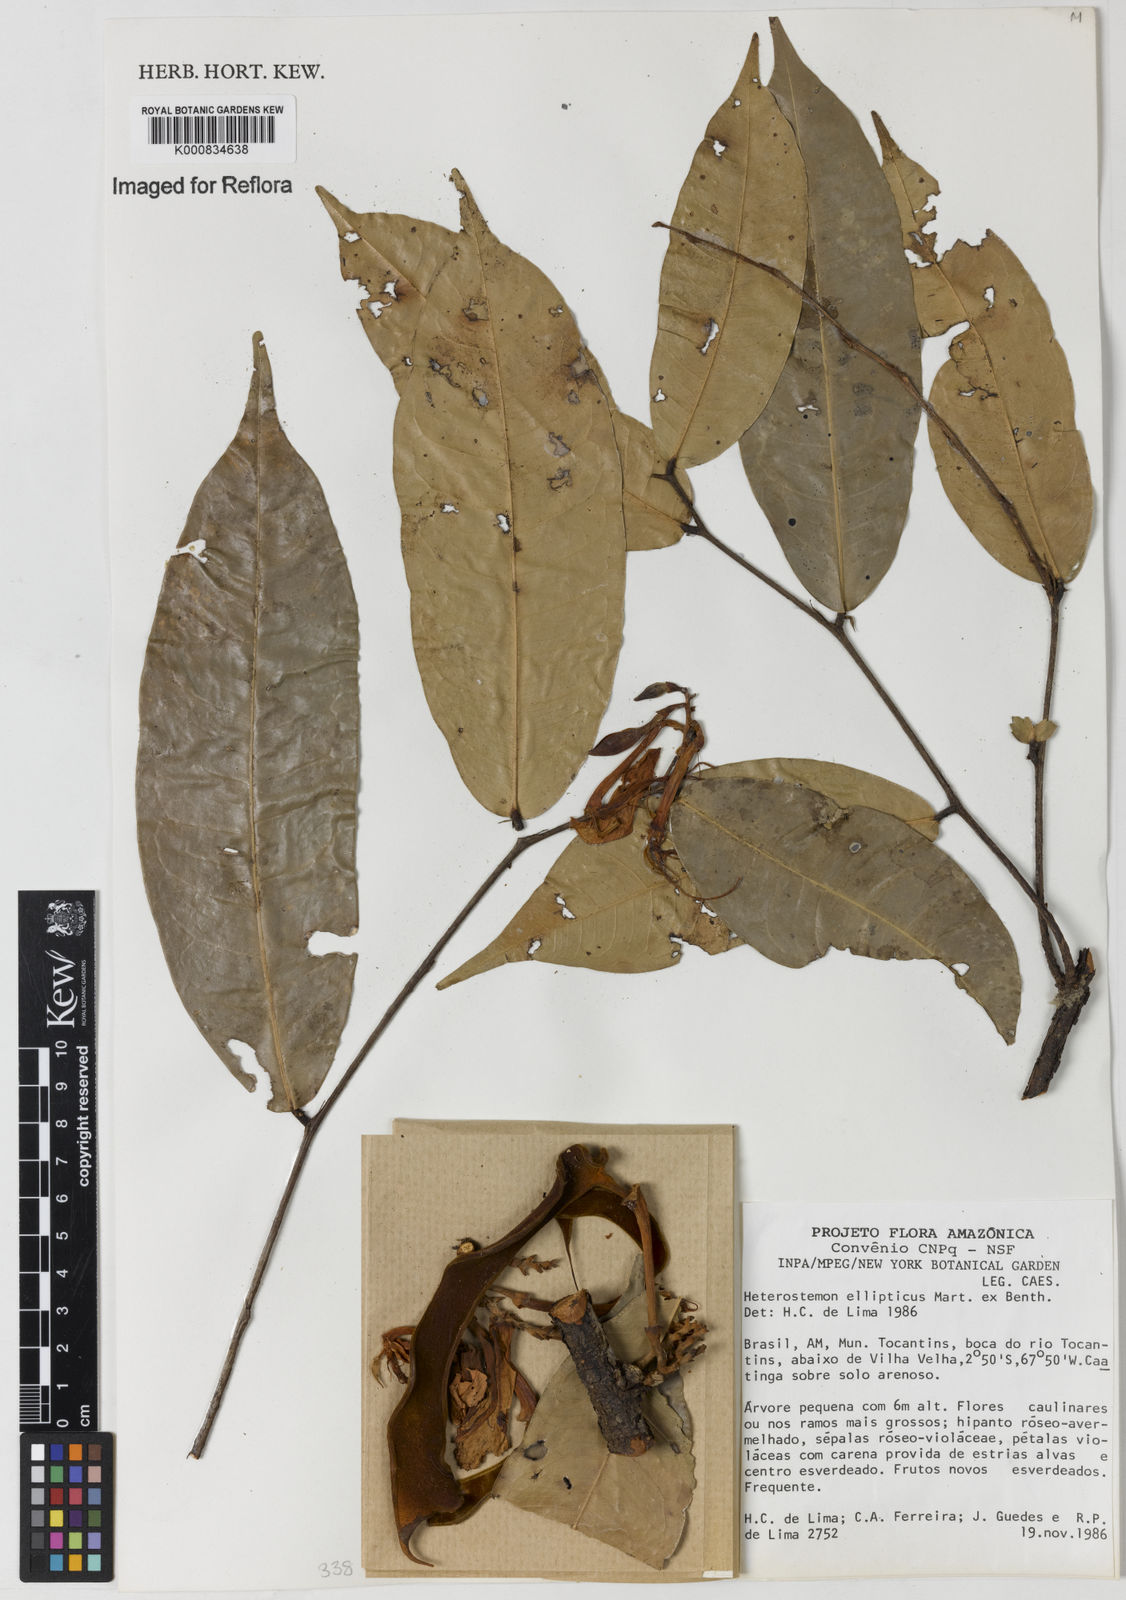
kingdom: Plantae
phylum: Tracheophyta
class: Magnoliopsida
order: Fabales
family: Fabaceae
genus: Heterostemon
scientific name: Heterostemon ellipticus
